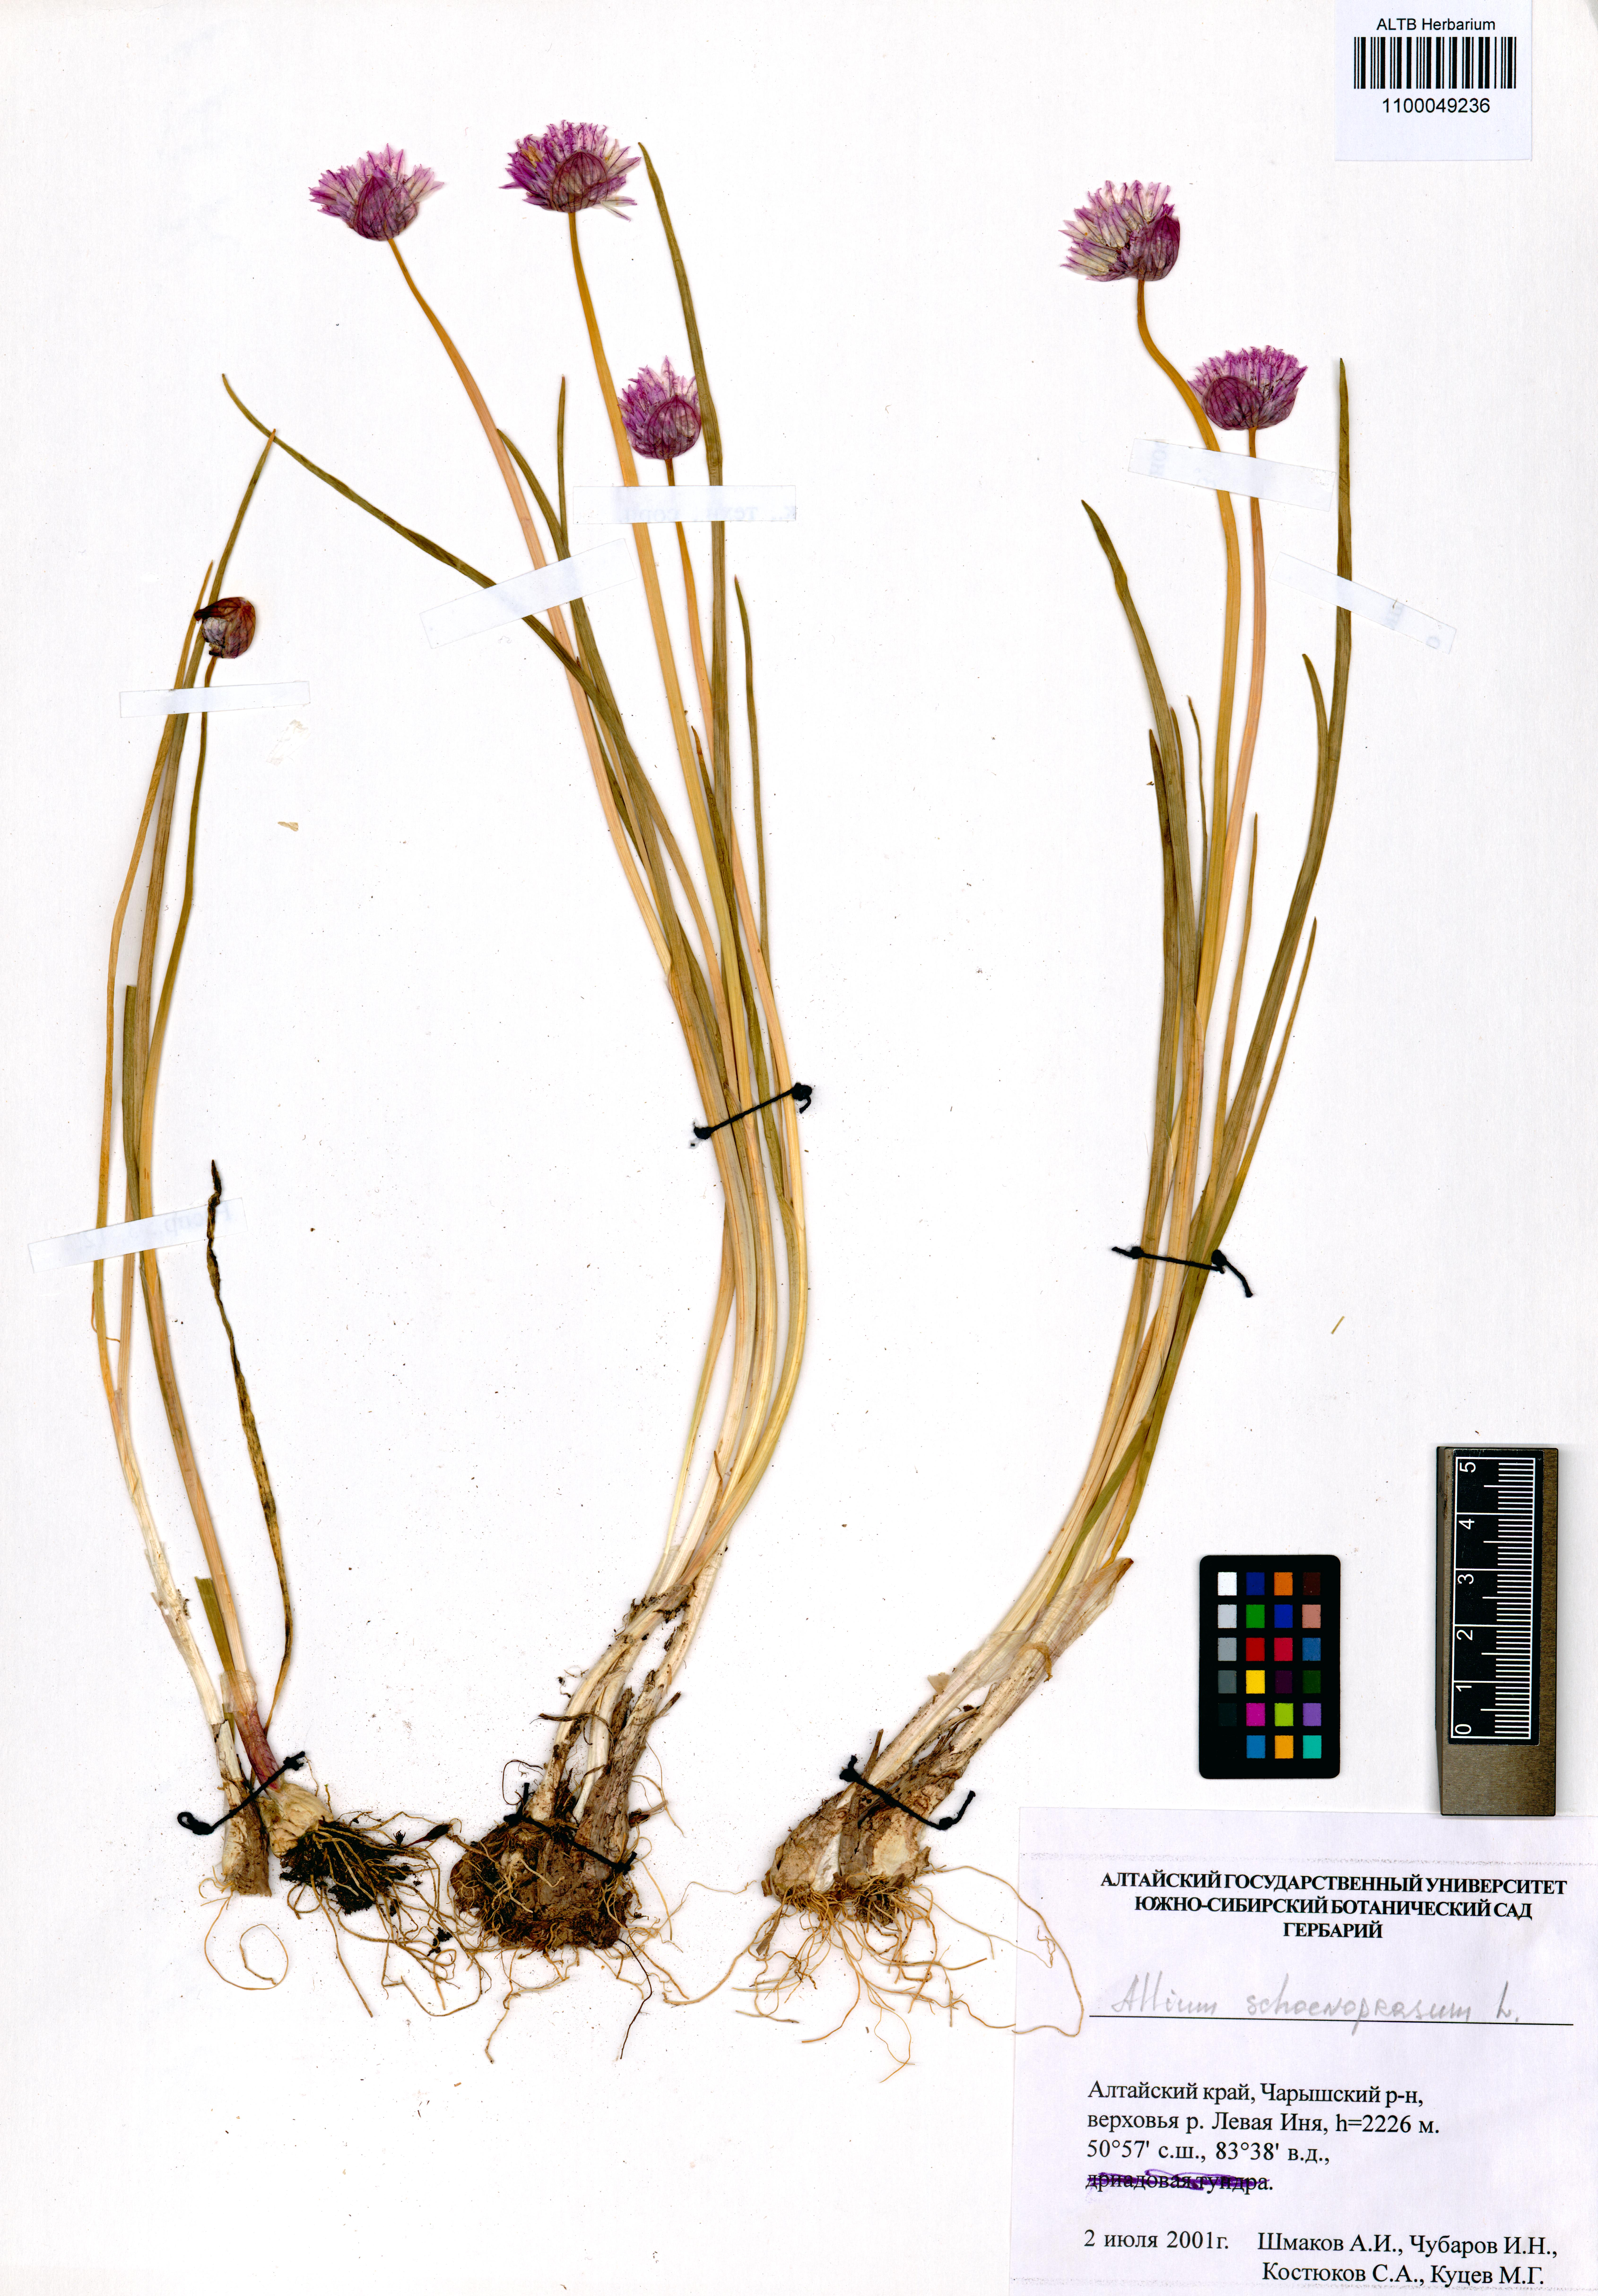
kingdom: Plantae
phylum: Tracheophyta
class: Liliopsida
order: Asparagales
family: Amaryllidaceae
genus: Allium
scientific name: Allium schoenoprasum
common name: Chives
